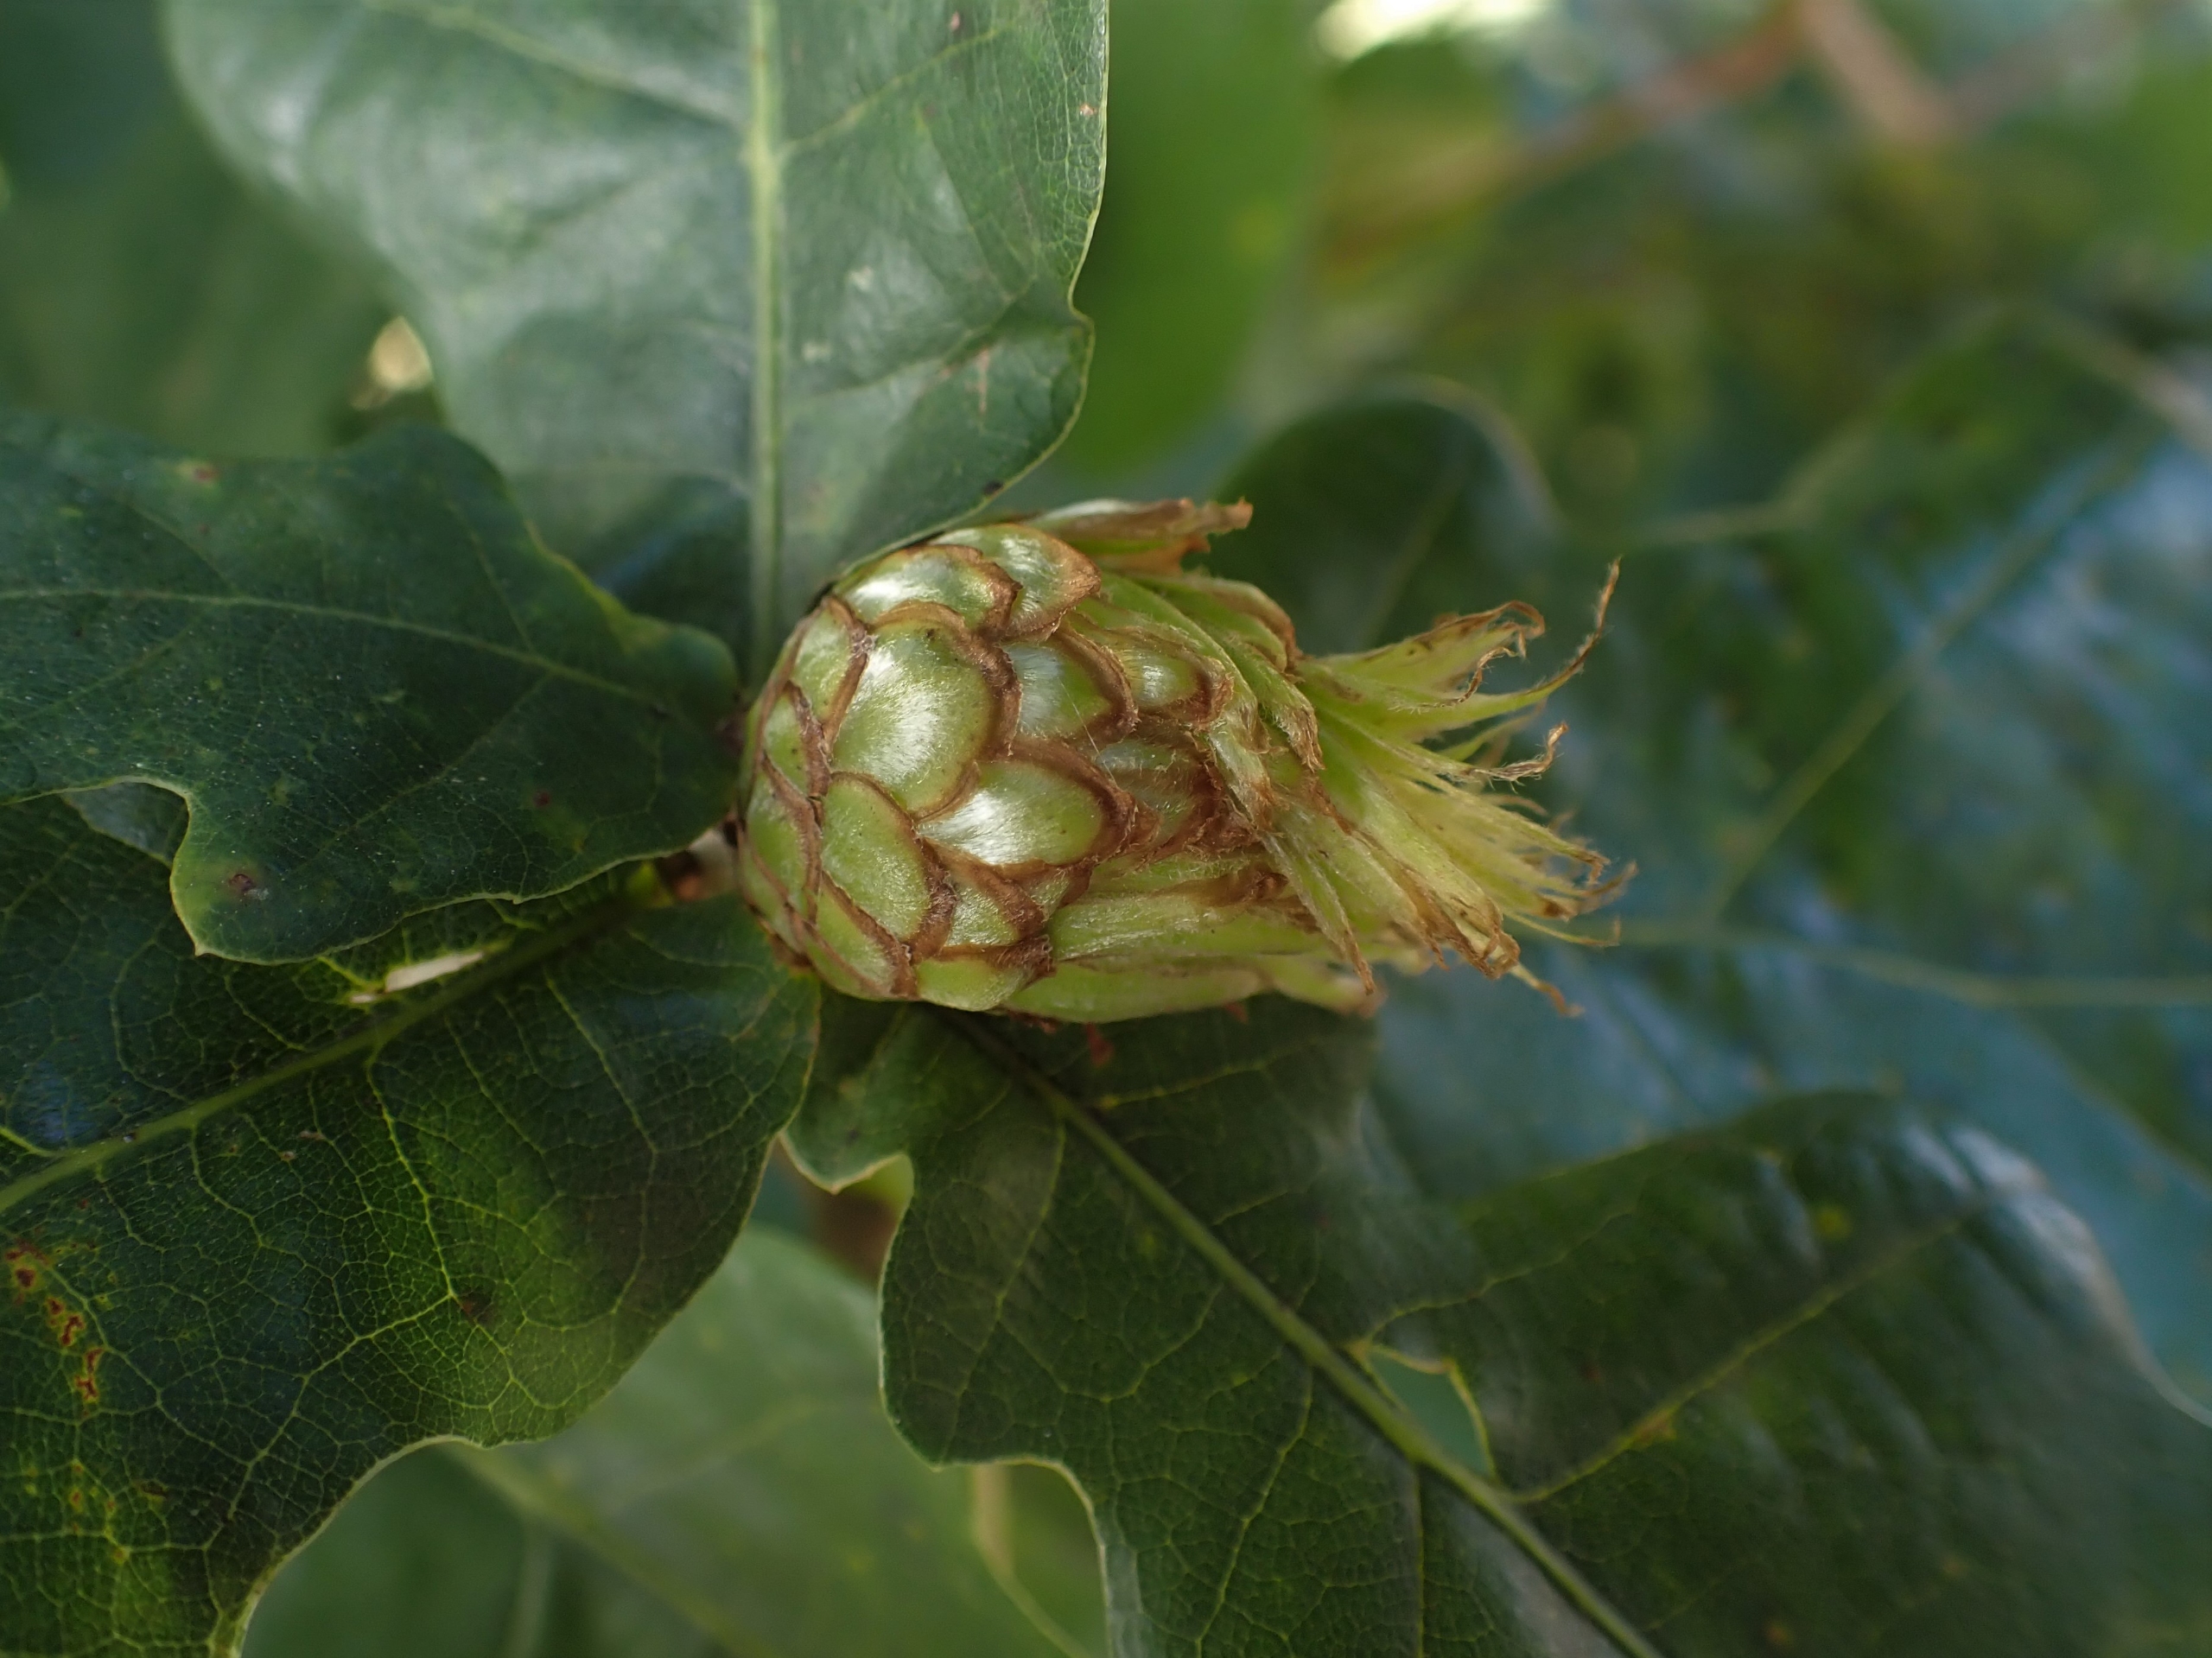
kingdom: Animalia
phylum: Arthropoda
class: Insecta
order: Hymenoptera
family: Cynipidae
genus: Andricus
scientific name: Andricus foecundatrix
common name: Artiskokgalhveps
